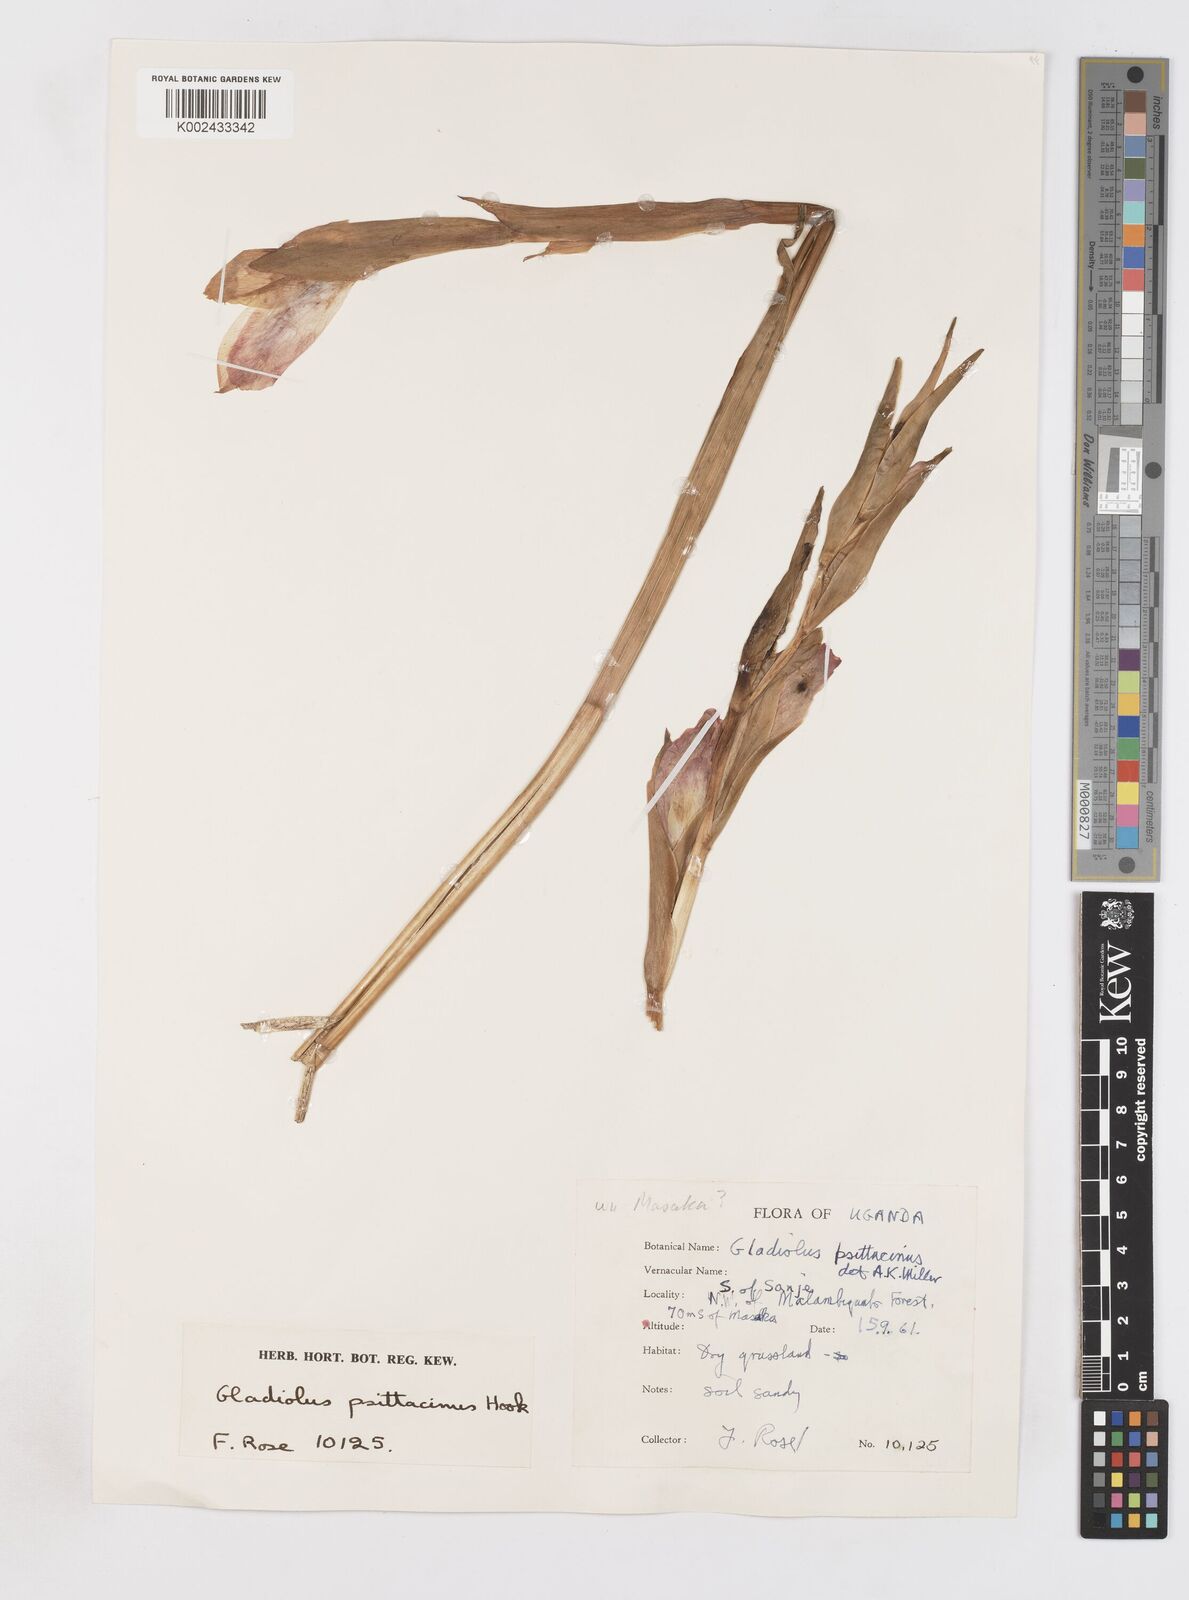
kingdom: Plantae
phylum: Tracheophyta
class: Liliopsida
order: Asparagales
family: Iridaceae
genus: Gladiolus
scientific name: Gladiolus dalenii
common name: Cornflag
